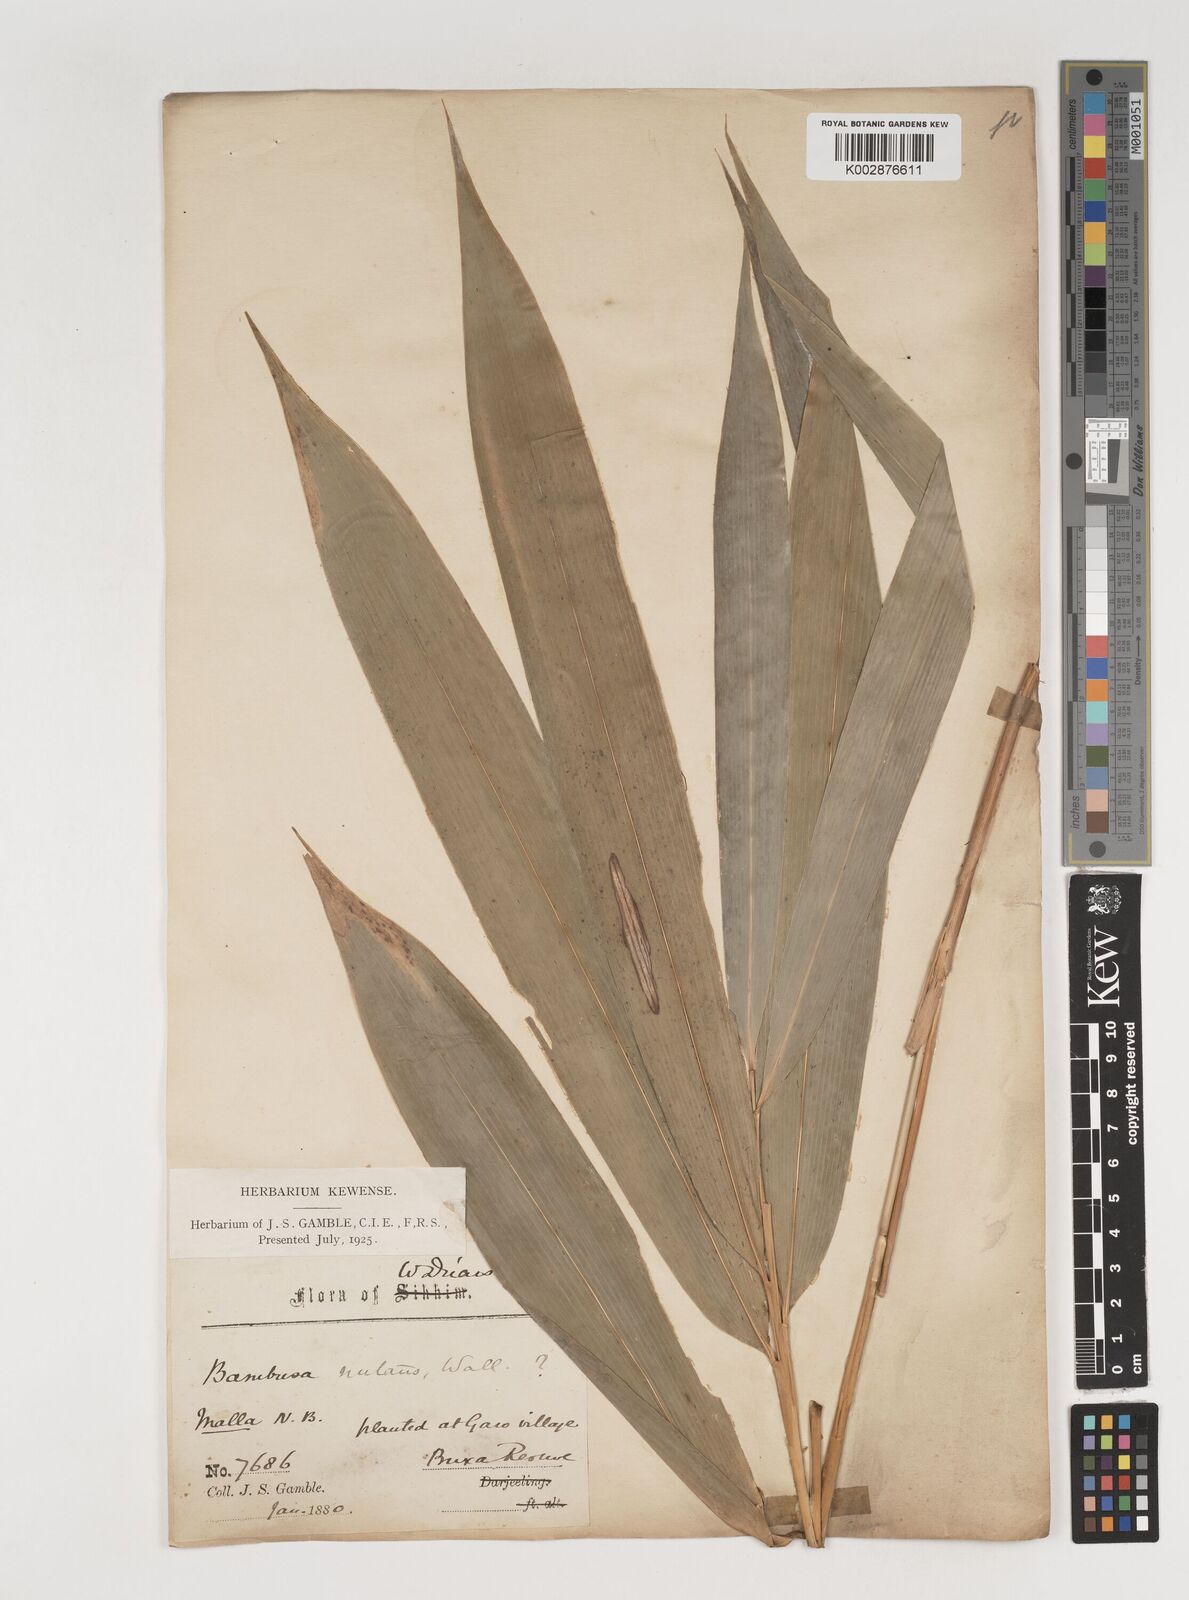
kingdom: Plantae
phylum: Tracheophyta
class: Liliopsida
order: Poales
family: Poaceae
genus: Bambusa
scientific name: Bambusa nutans
